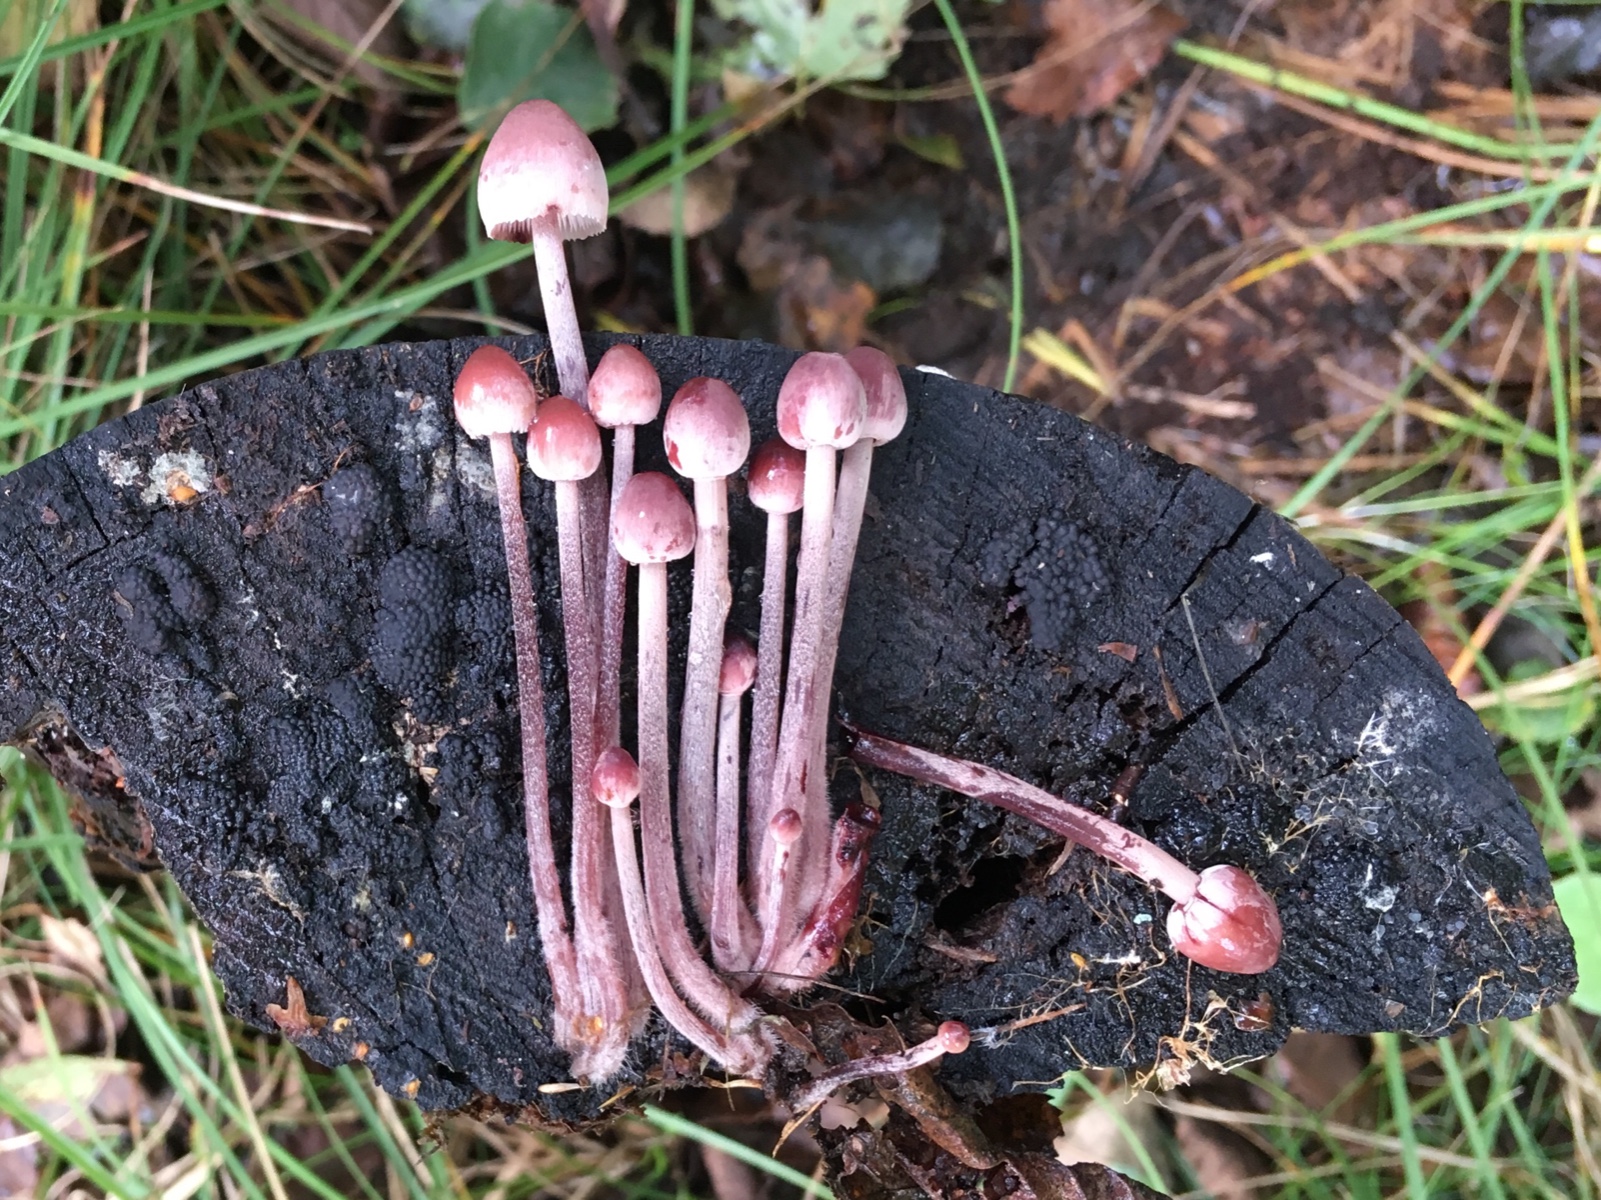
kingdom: Fungi
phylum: Basidiomycota
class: Agaricomycetes
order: Agaricales
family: Mycenaceae
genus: Mycena
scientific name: Mycena haematopus
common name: blødende huesvamp
